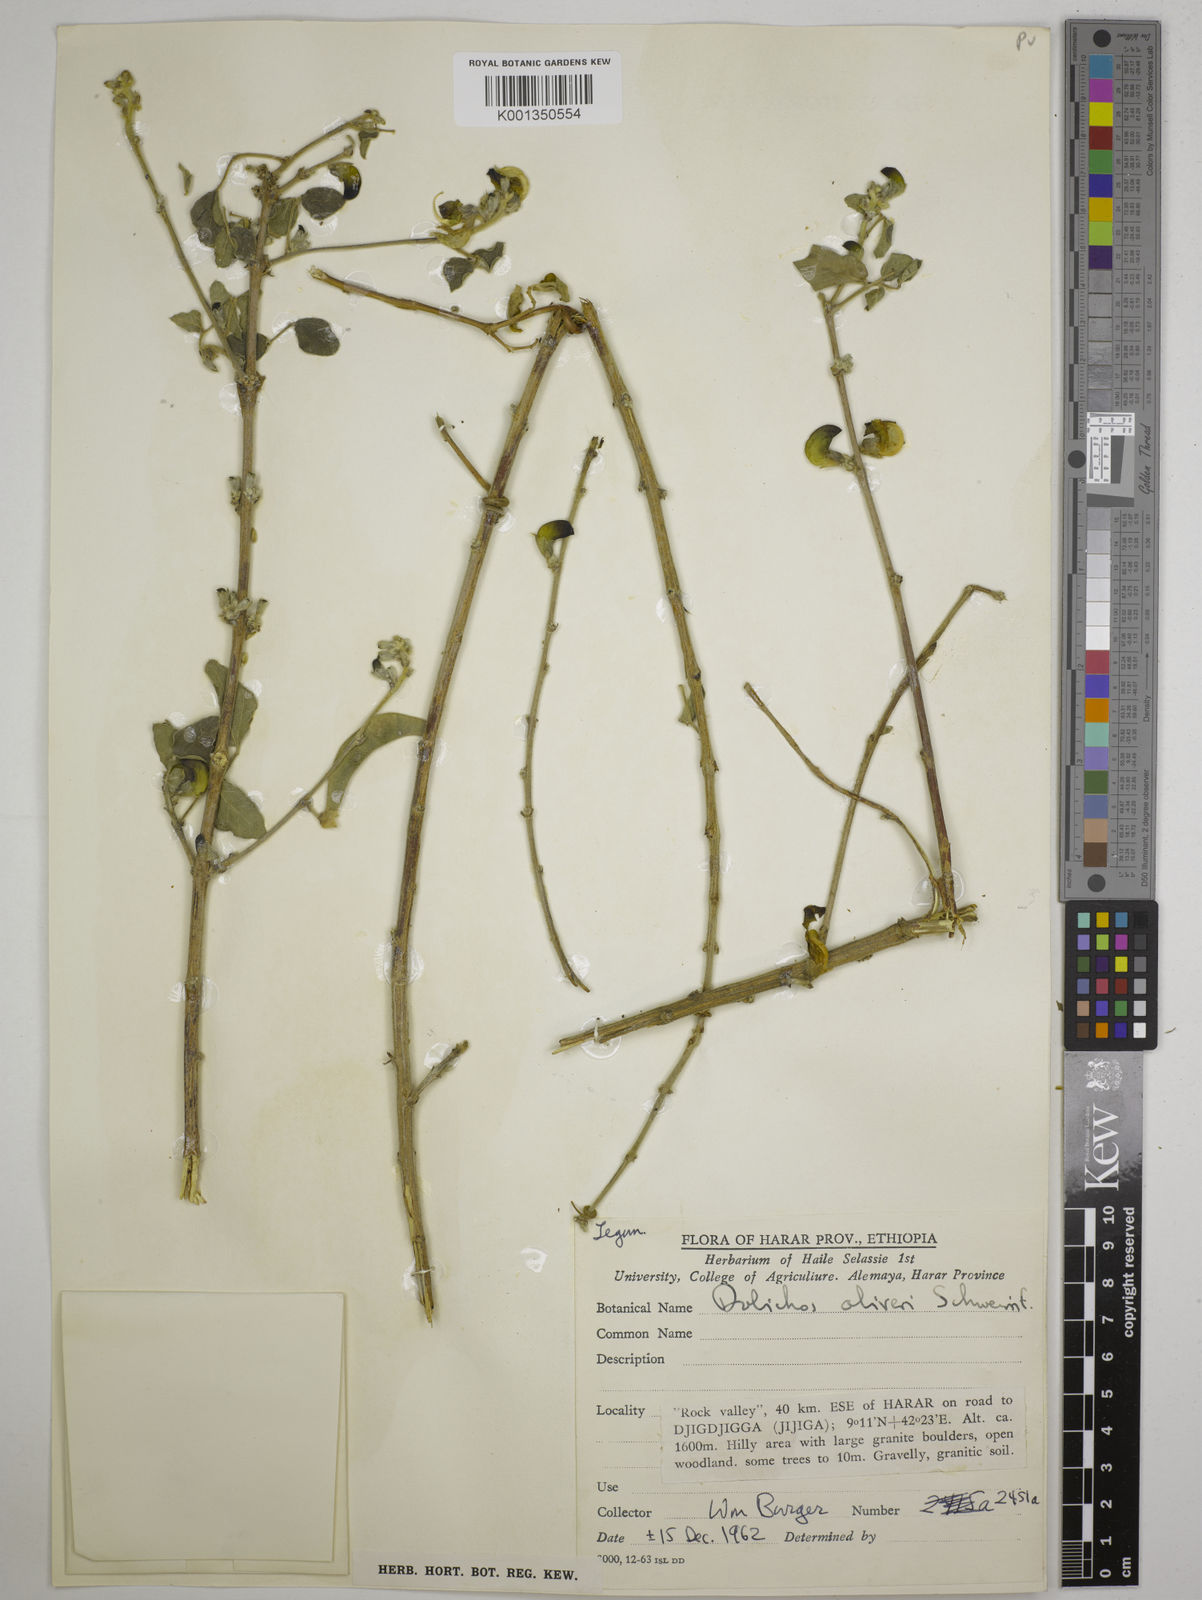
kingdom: Plantae
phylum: Tracheophyta
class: Magnoliopsida
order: Fabales
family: Fabaceae
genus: Dolichos
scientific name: Dolichos oliveri
